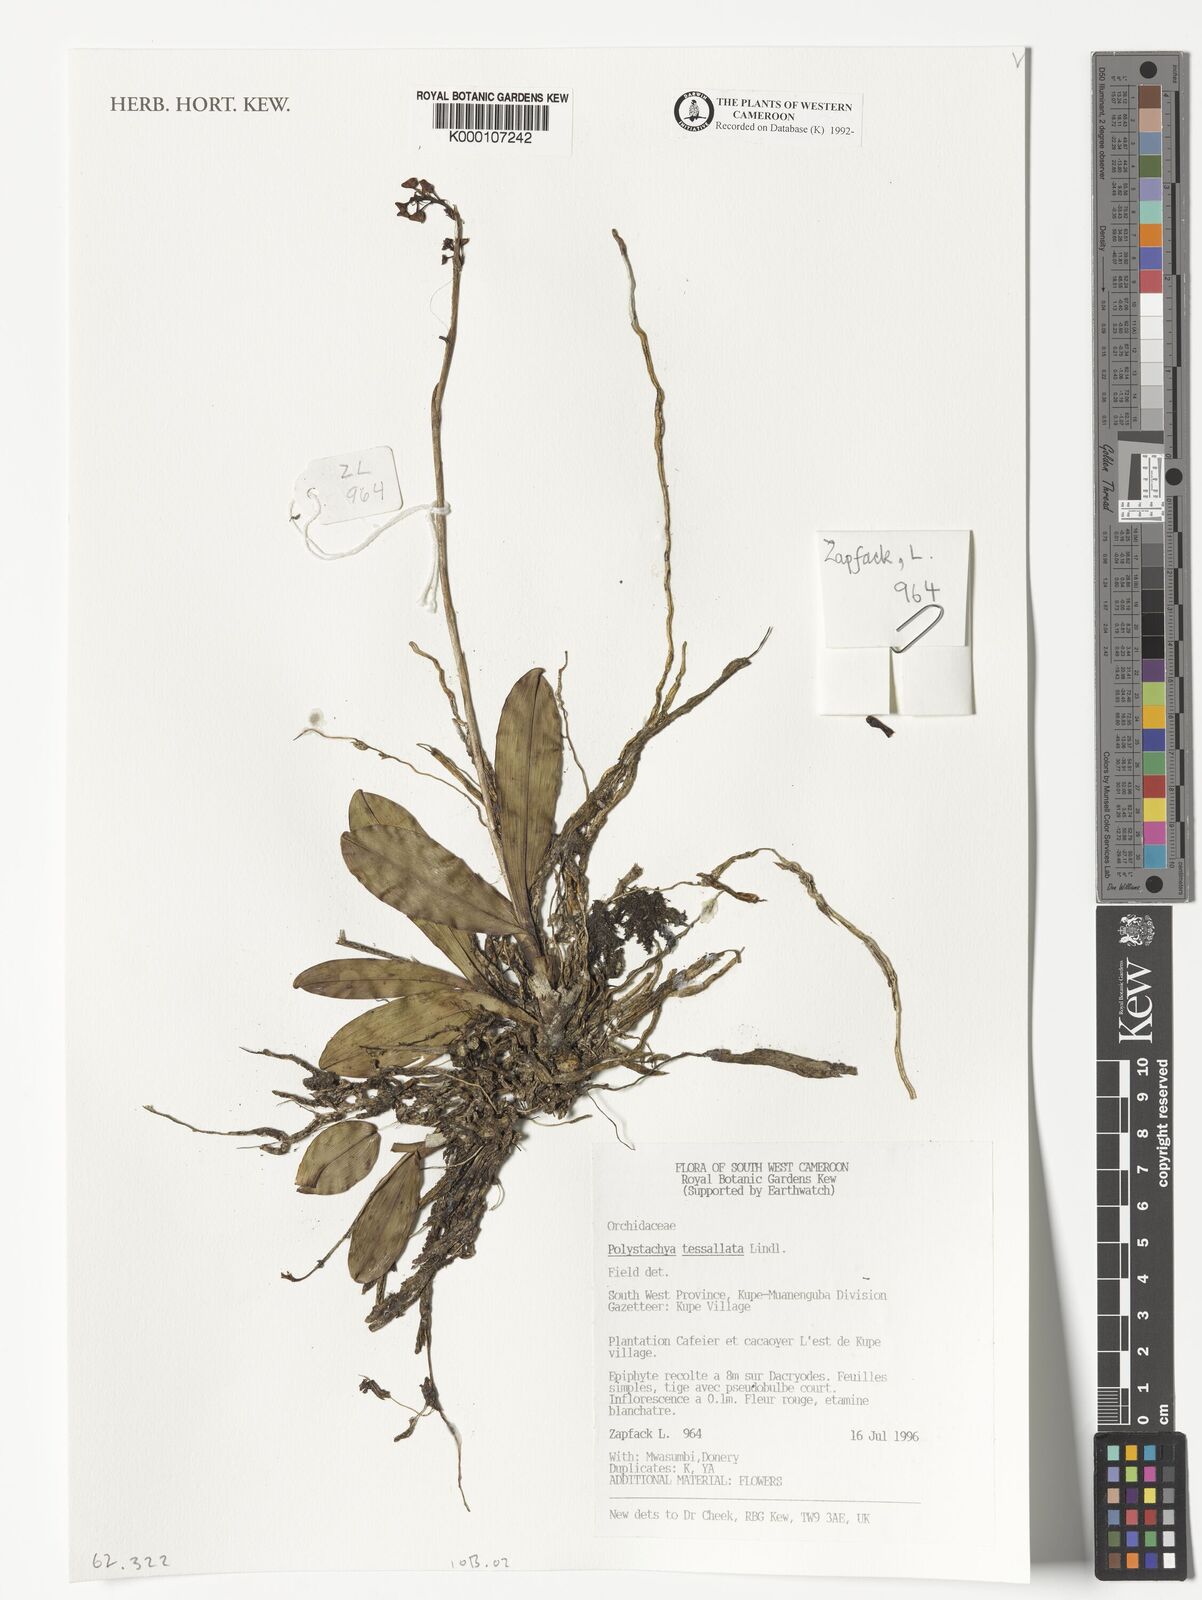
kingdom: Plantae
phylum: Tracheophyta
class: Liliopsida
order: Asparagales
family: Orchidaceae
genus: Polystachya
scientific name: Polystachya concreta
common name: Greater yellowspike orchid
